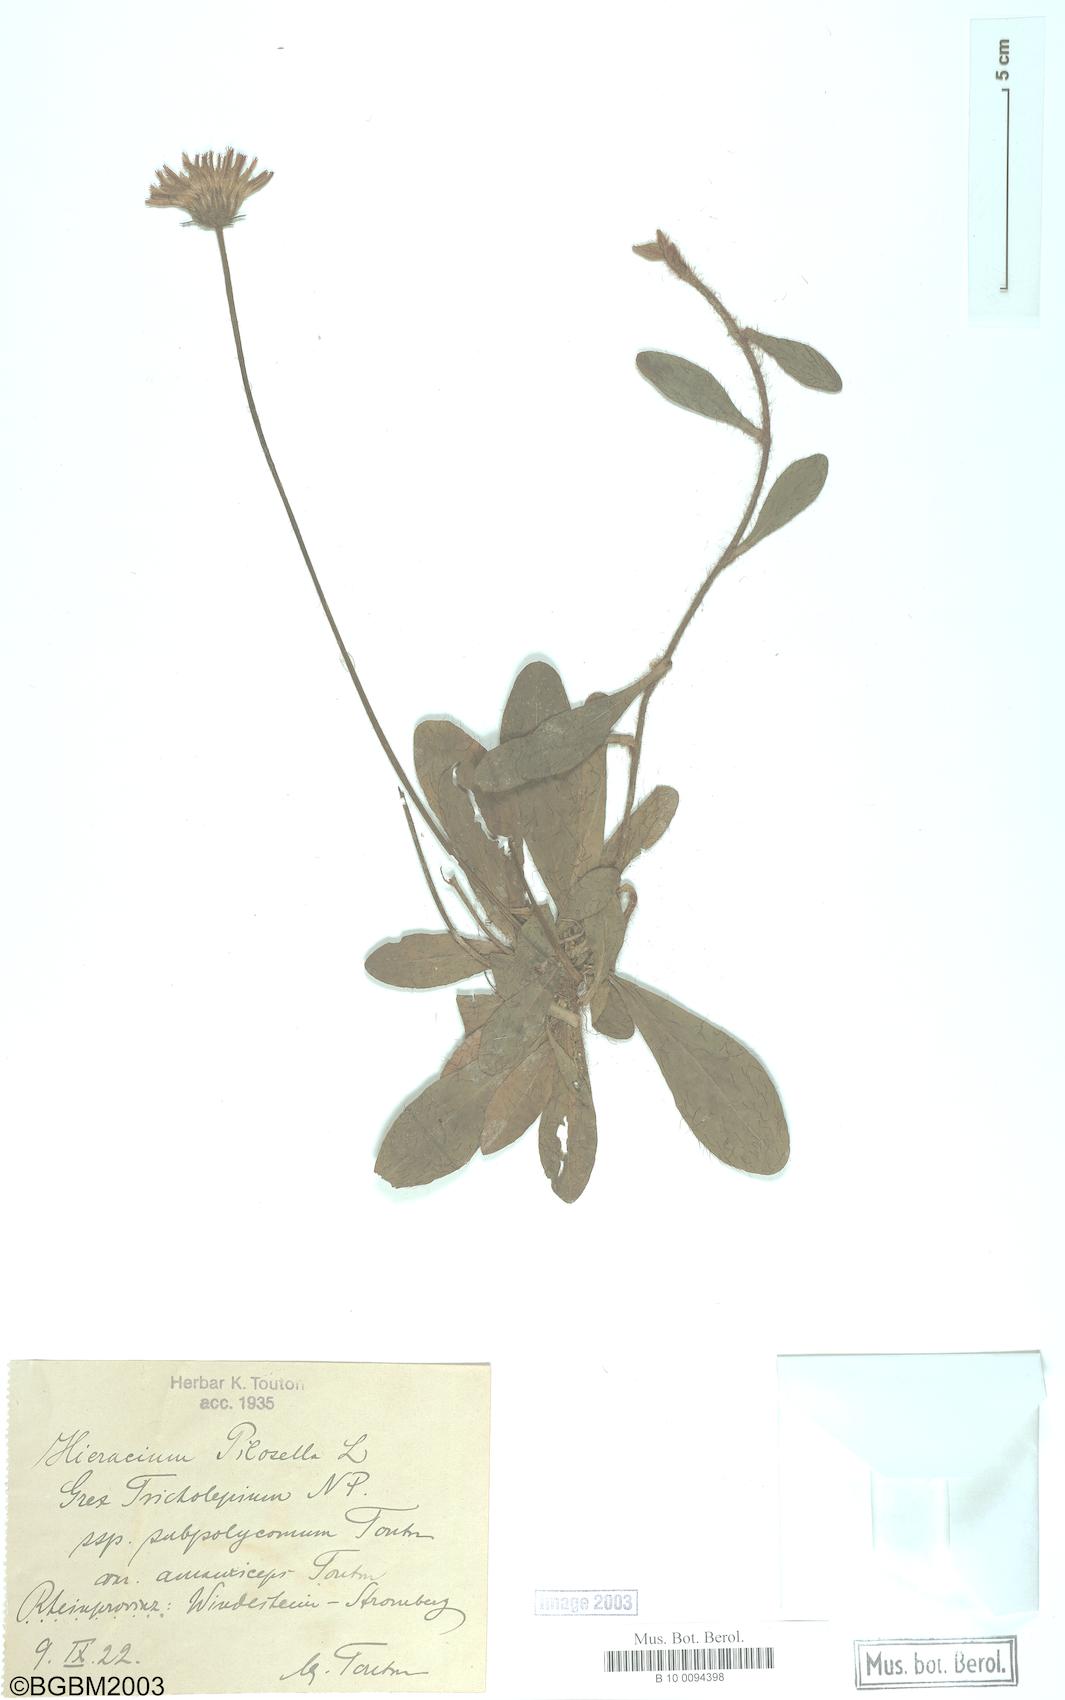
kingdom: Plantae
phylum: Tracheophyta
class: Magnoliopsida
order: Asterales
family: Asteraceae
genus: Pilosella
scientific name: Pilosella officinarum
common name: Mouse-ear hawkweed
